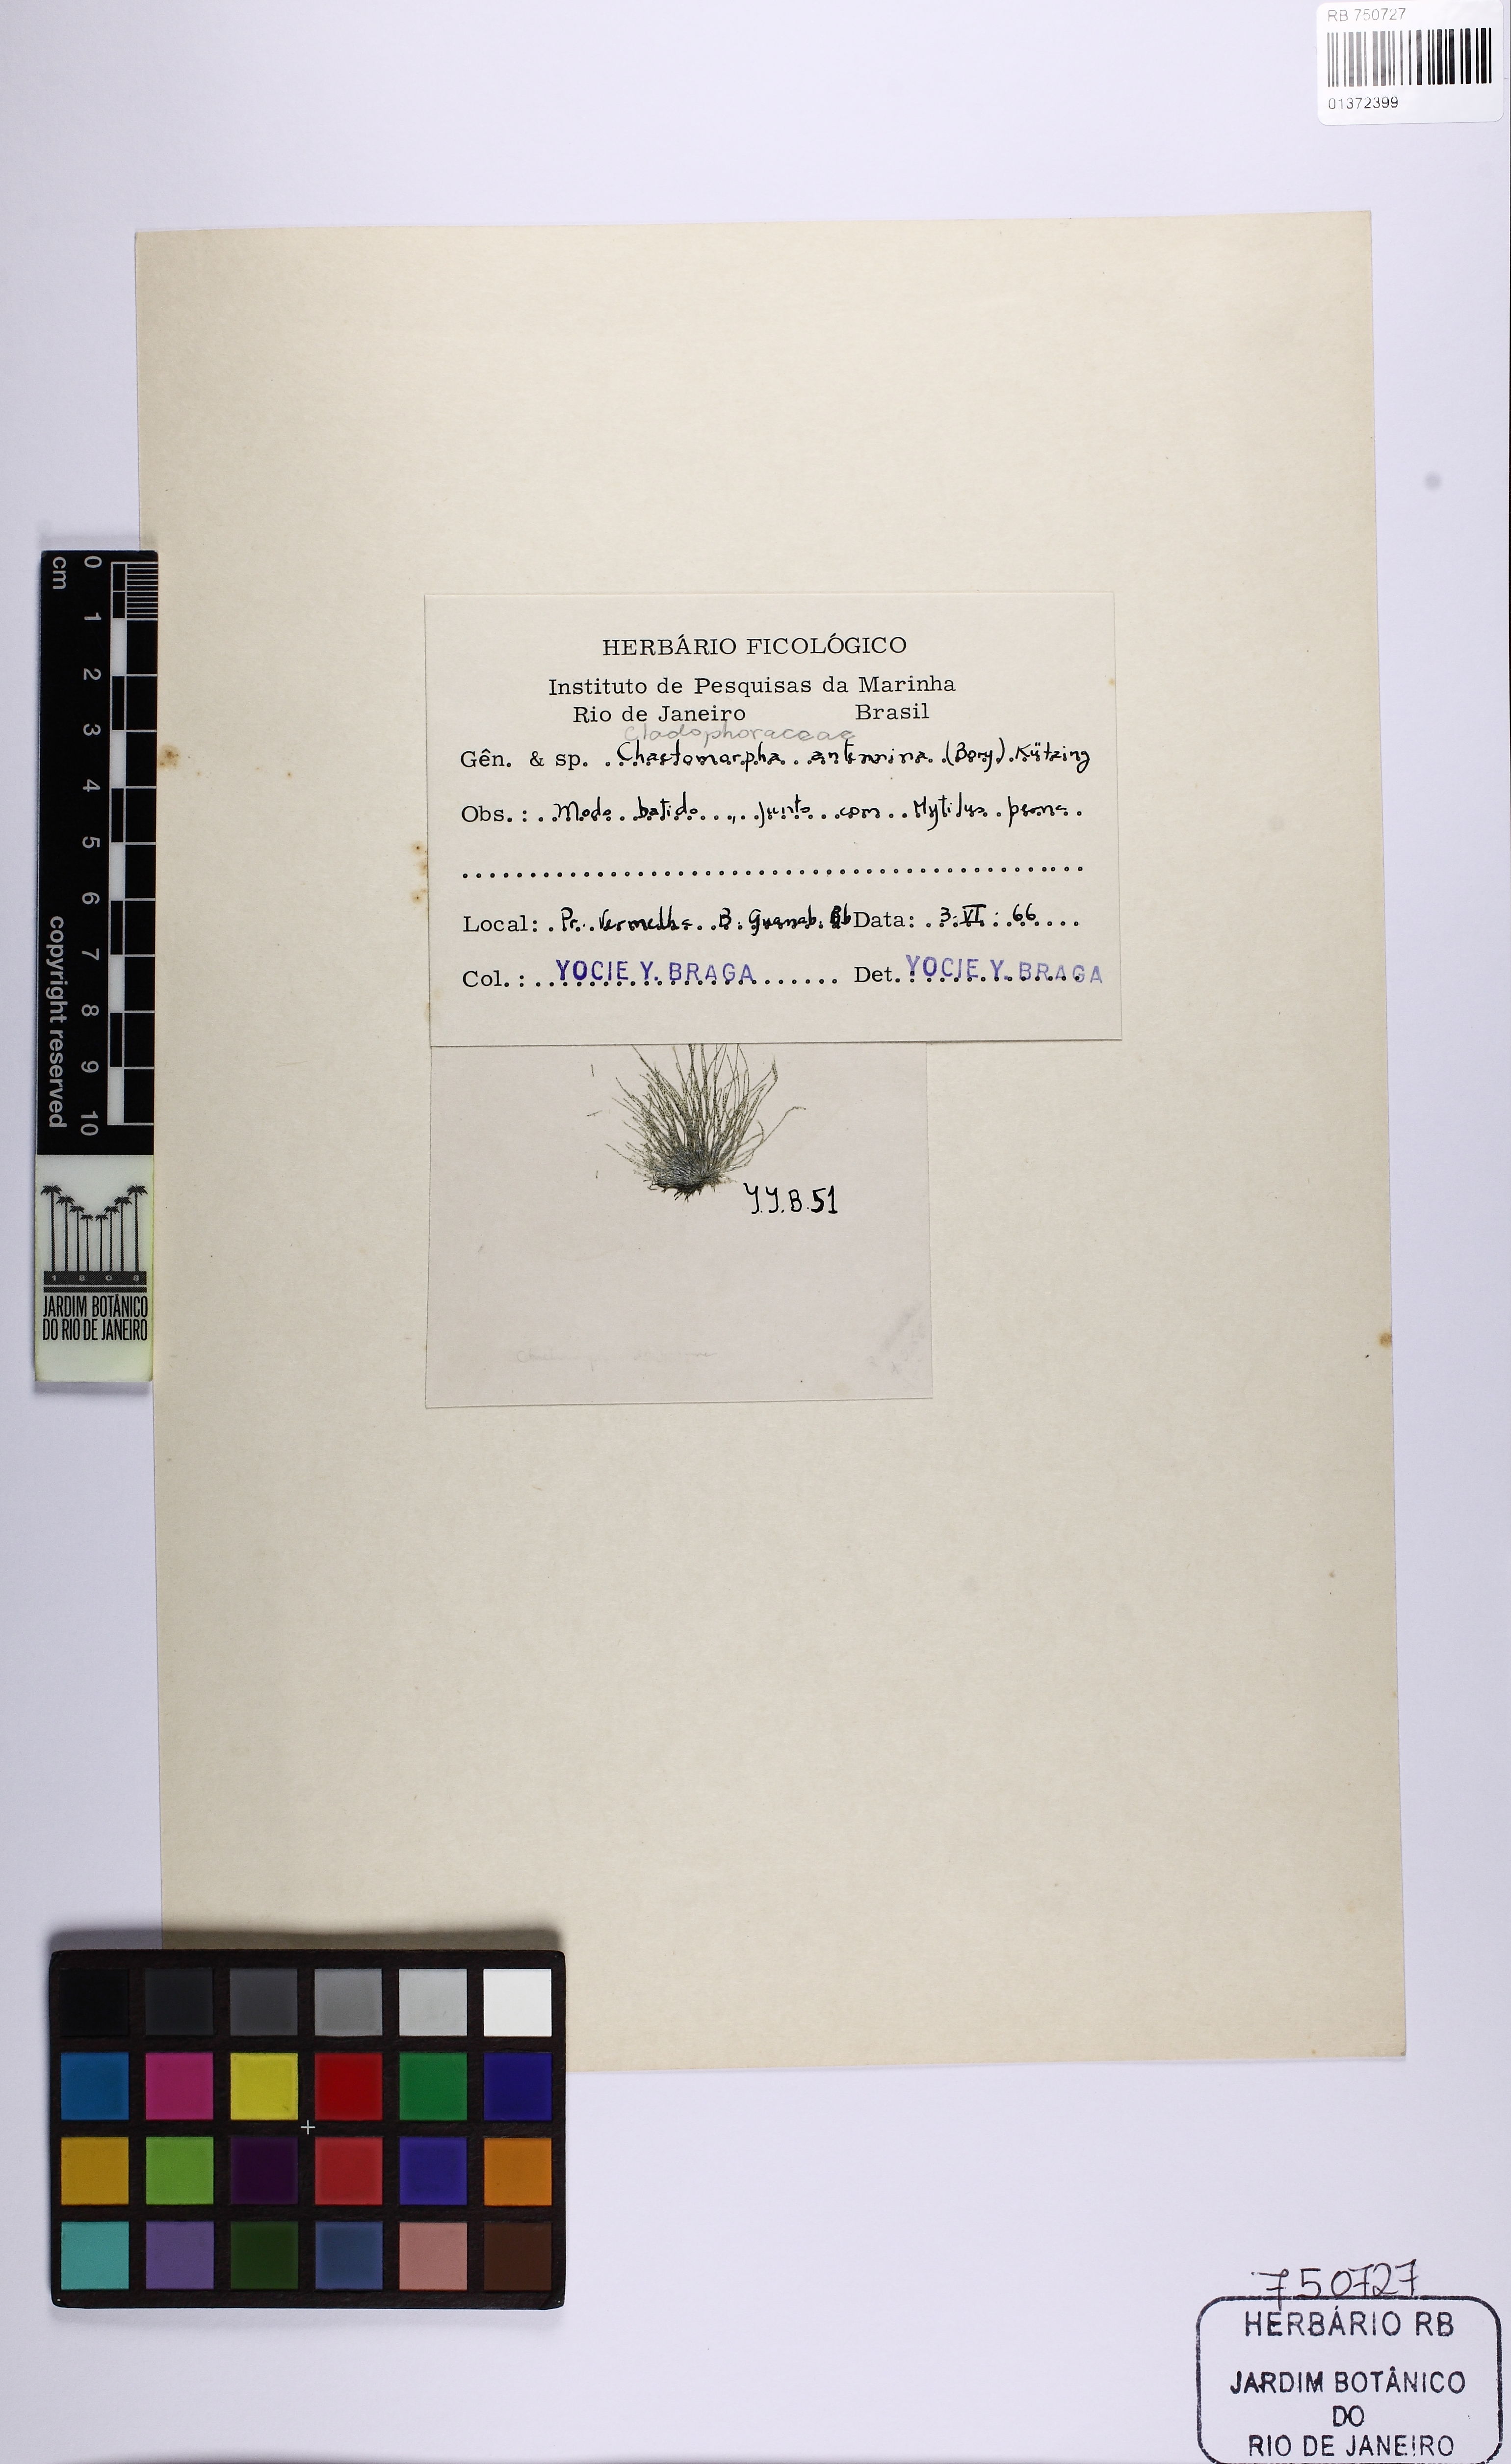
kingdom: Plantae
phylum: Chlorophyta
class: Ulvophyceae
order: Cladophorales
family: Cladophoraceae
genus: Chaetomorpha
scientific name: Chaetomorpha antennina
